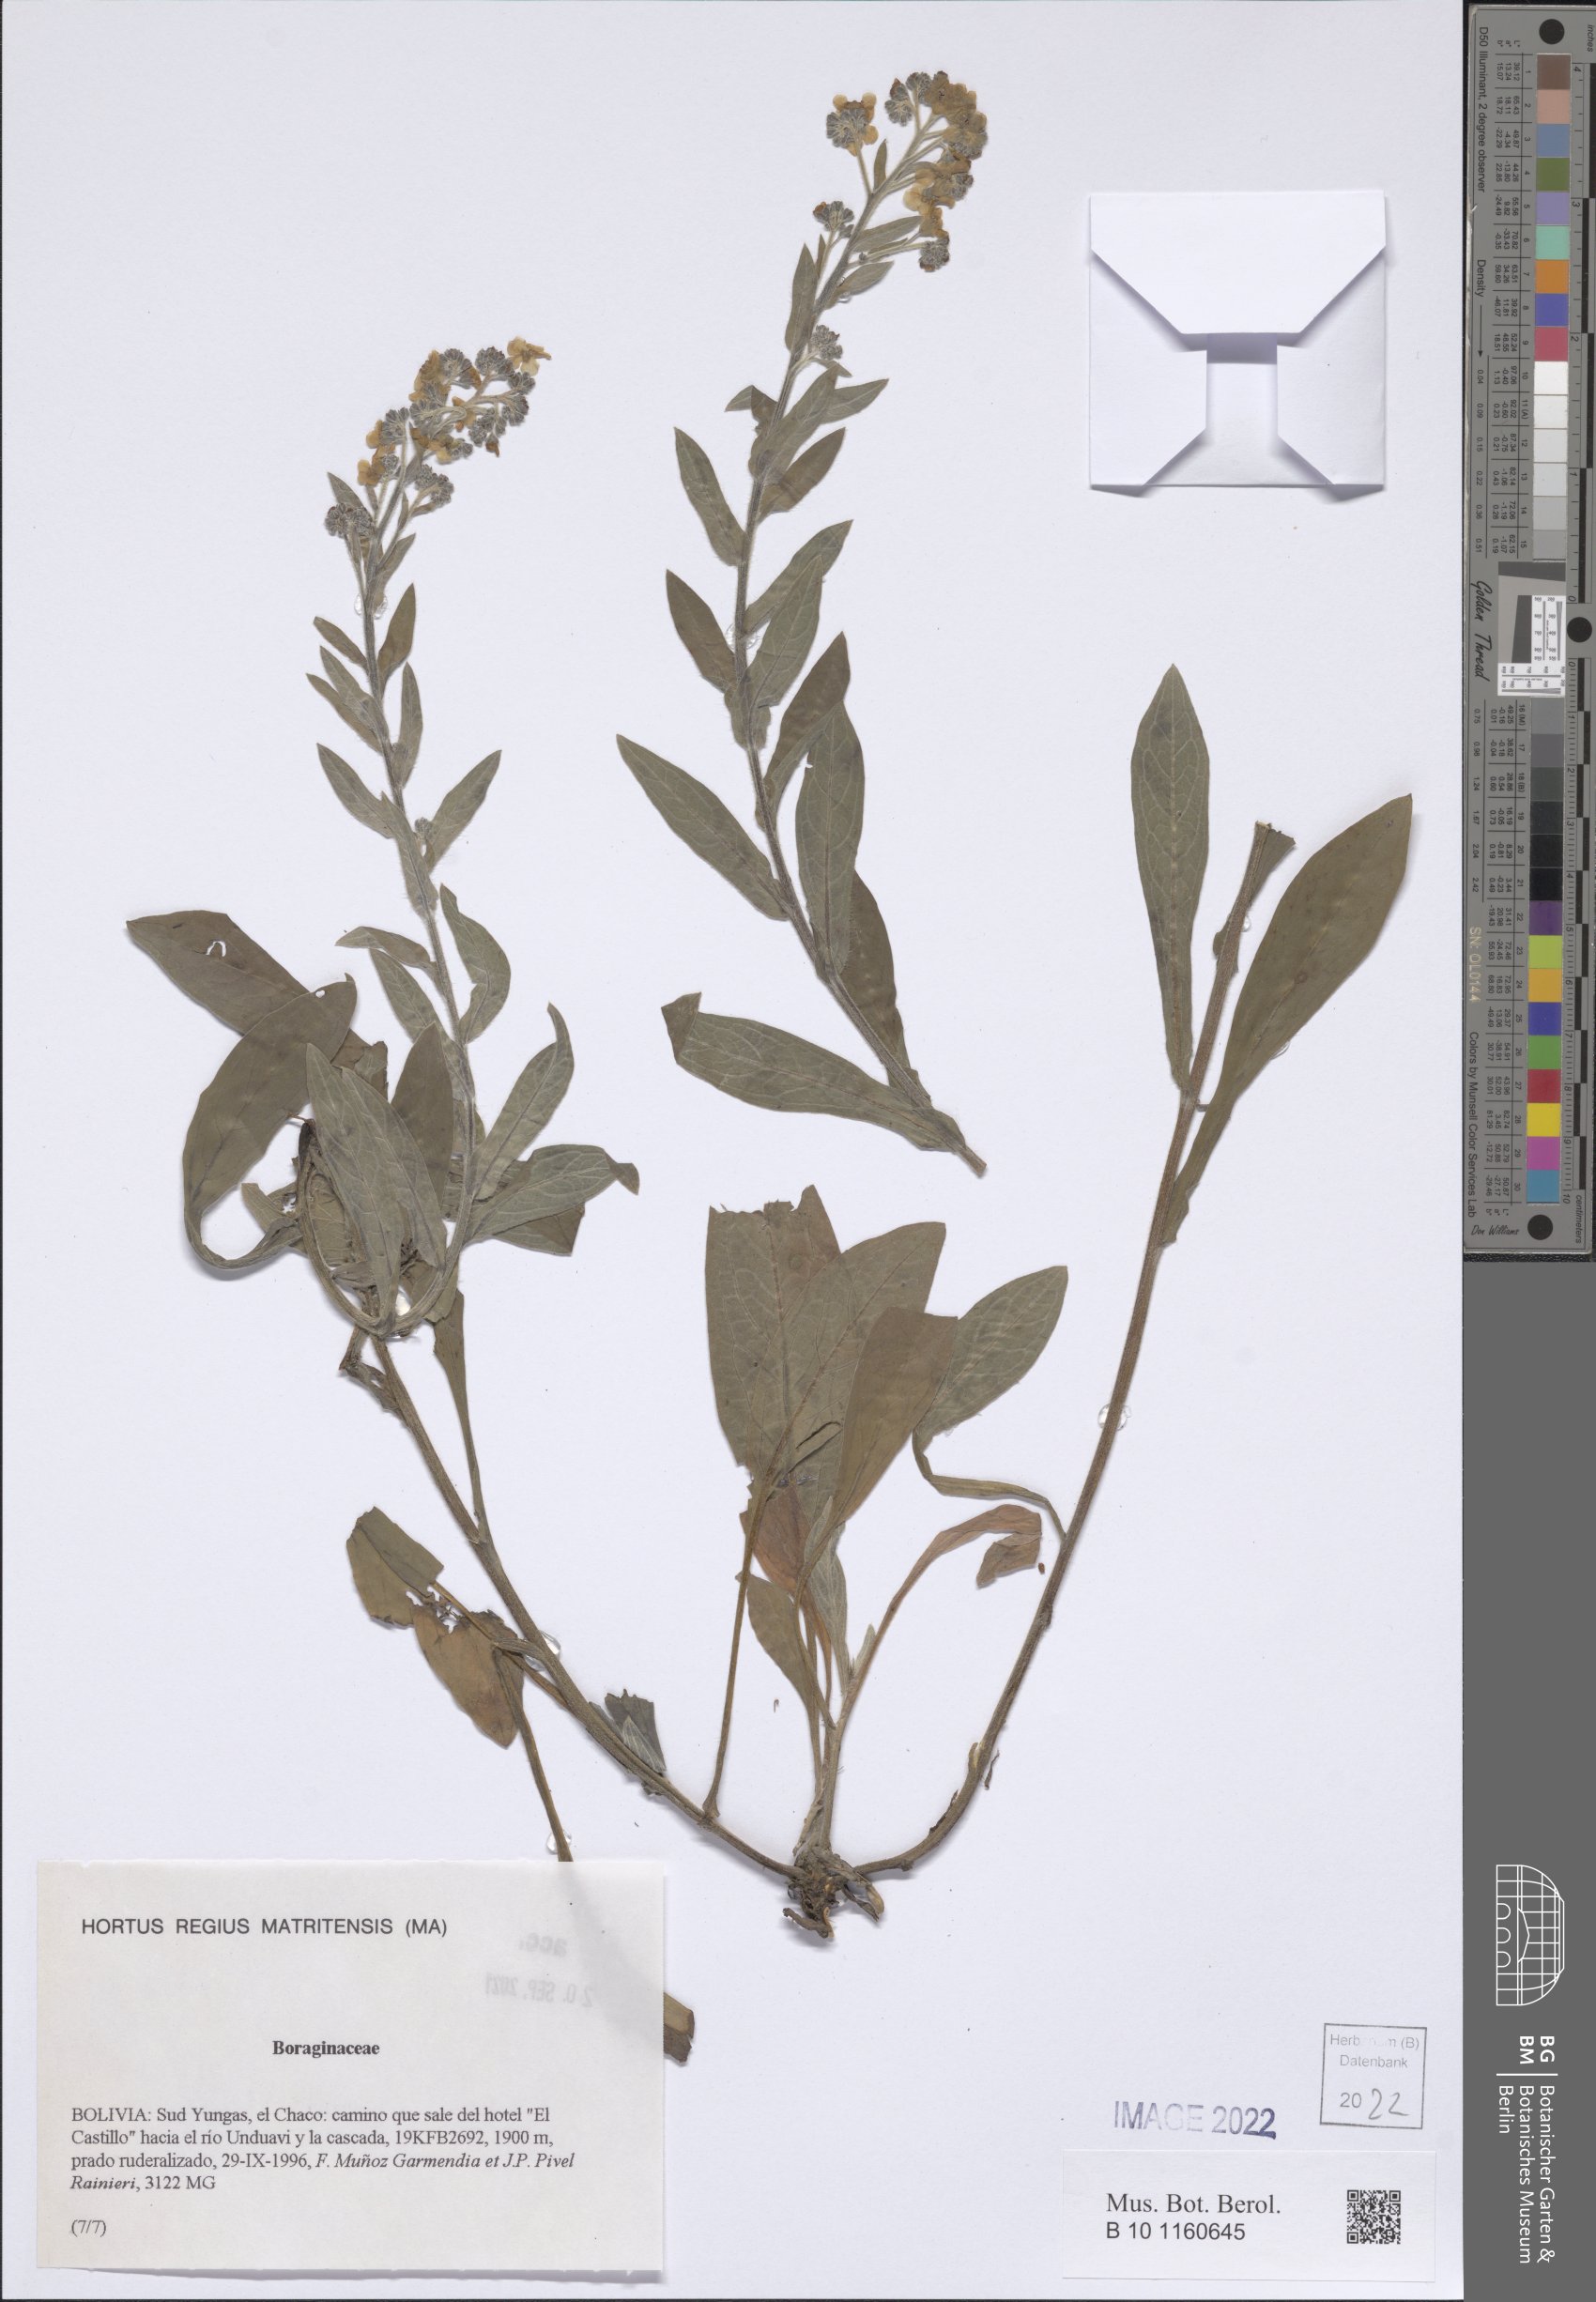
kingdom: Plantae
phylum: Tracheophyta
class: Magnoliopsida
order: Boraginales
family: Boraginaceae
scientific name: Boraginaceae
